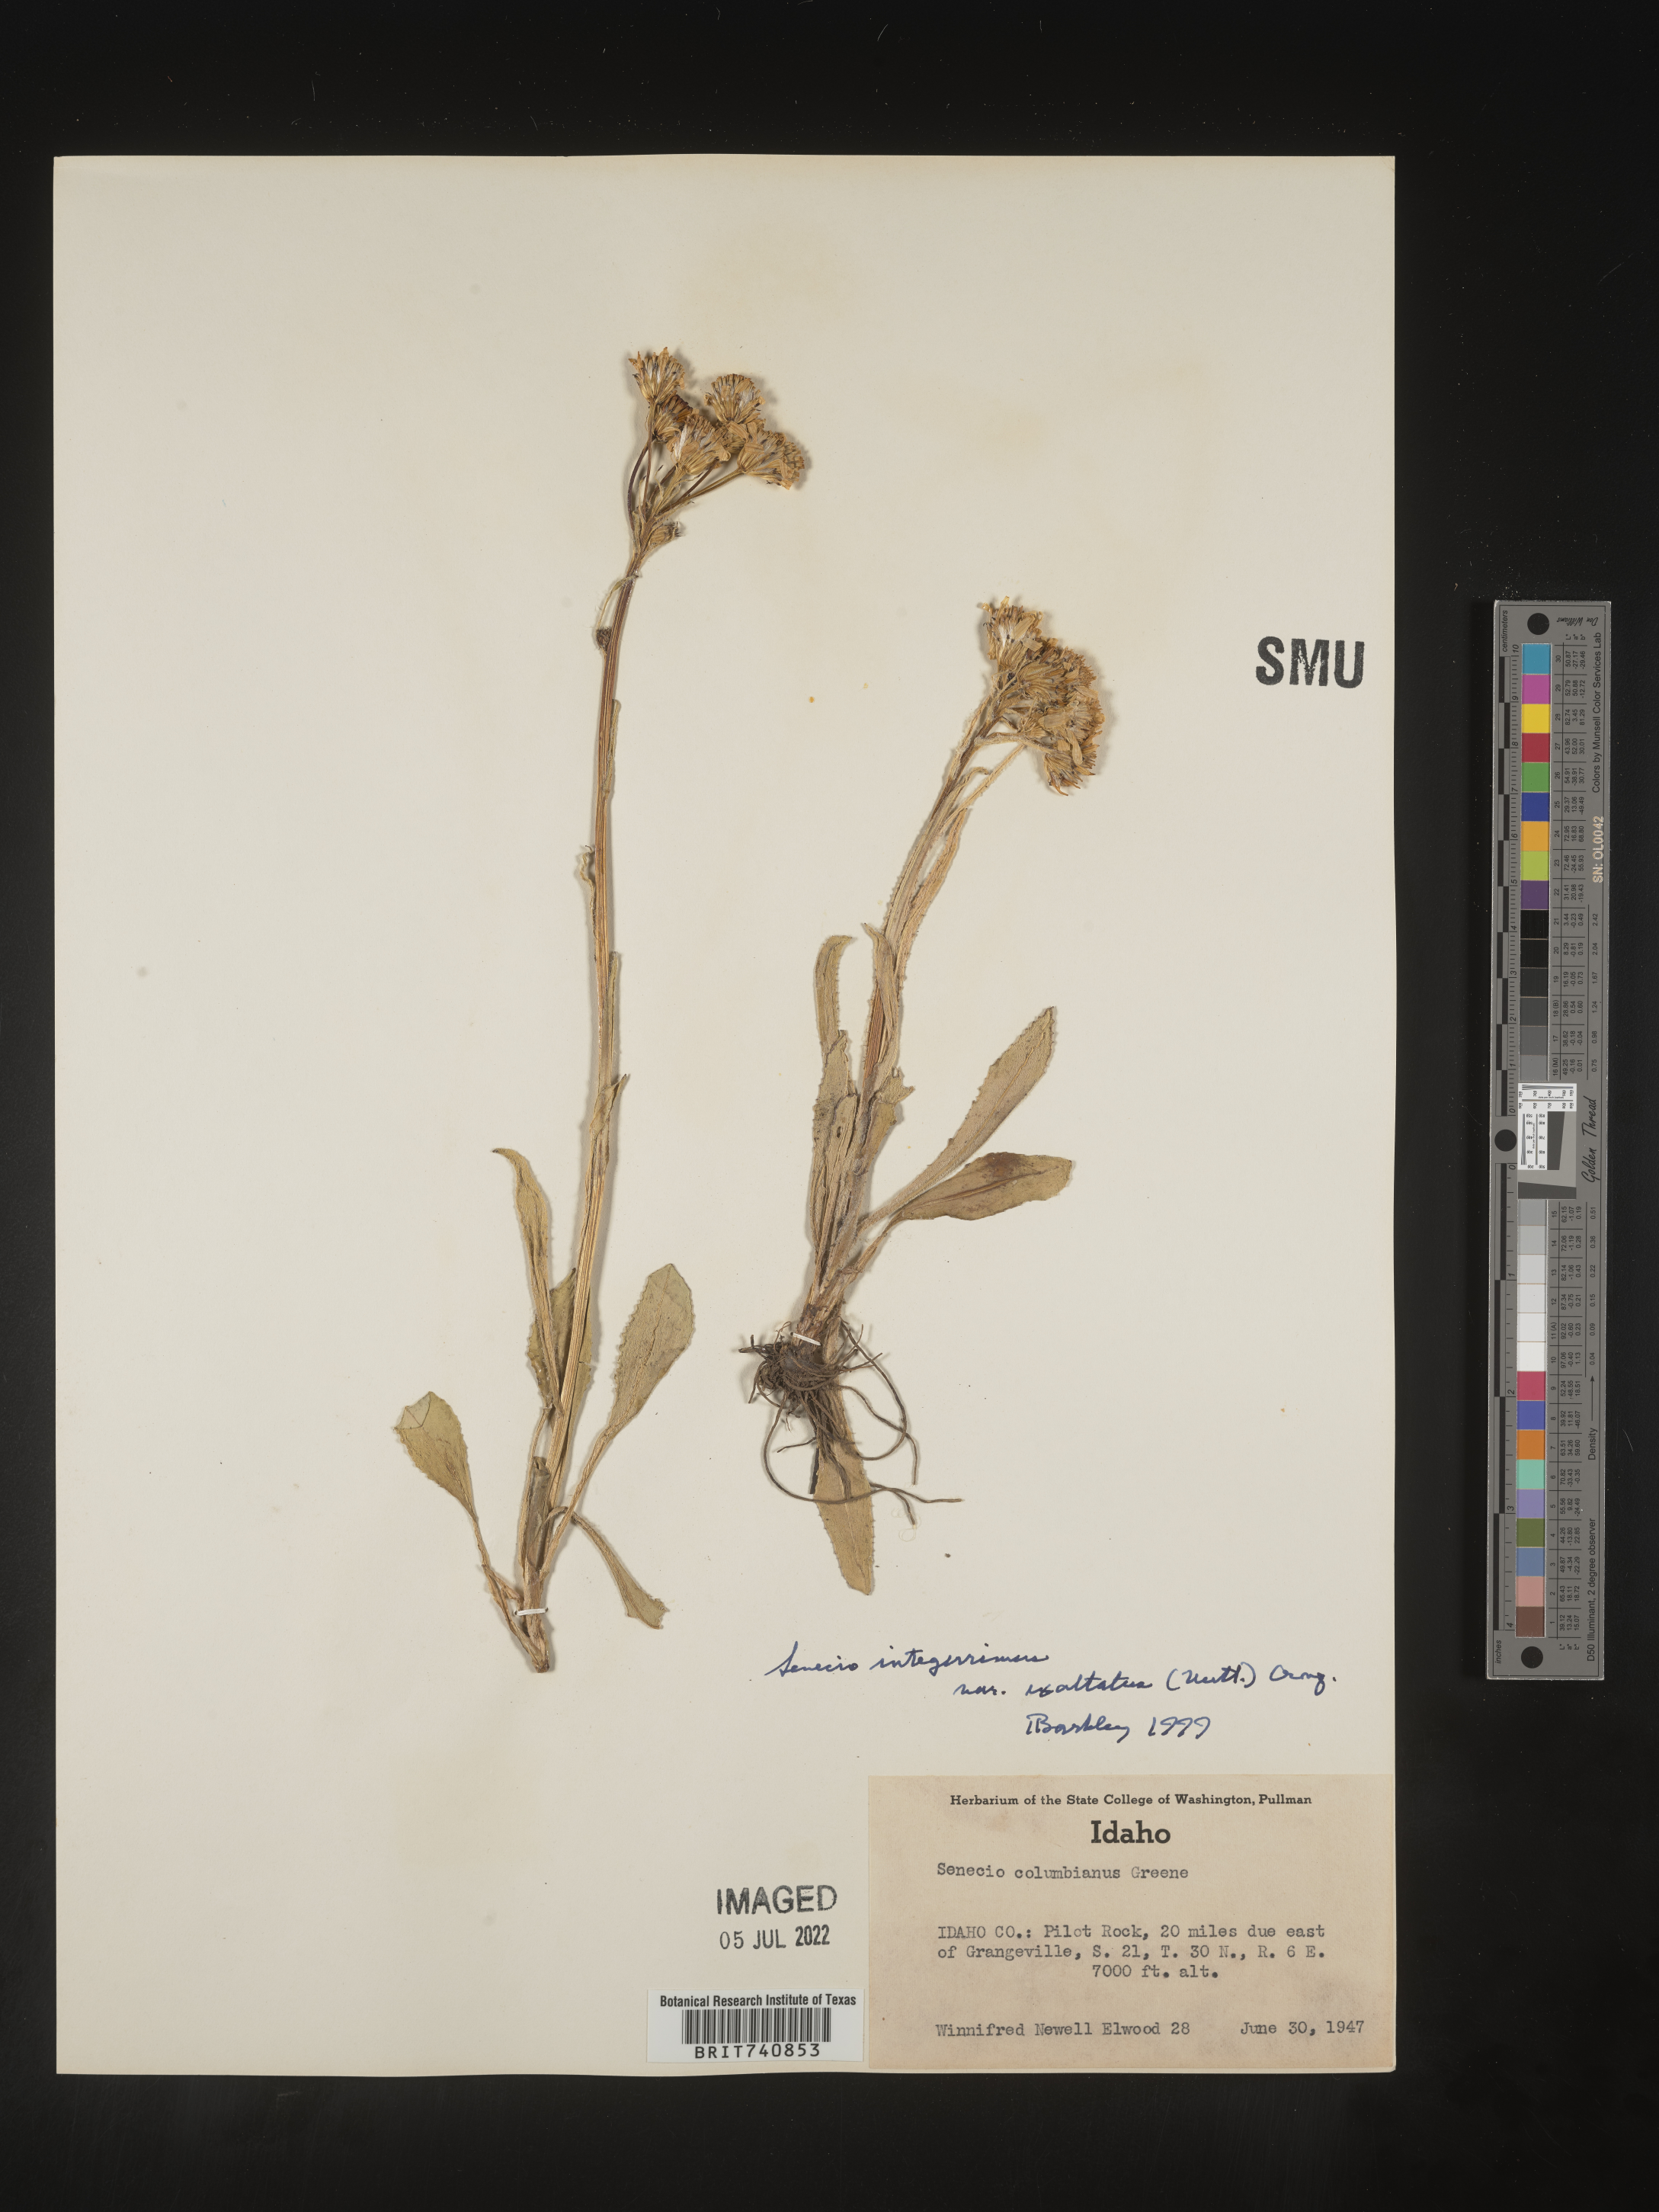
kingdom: Plantae
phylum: Tracheophyta
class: Magnoliopsida
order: Asterales
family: Asteraceae
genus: Senecio
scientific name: Senecio integerrimus
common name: Gaugeplant
